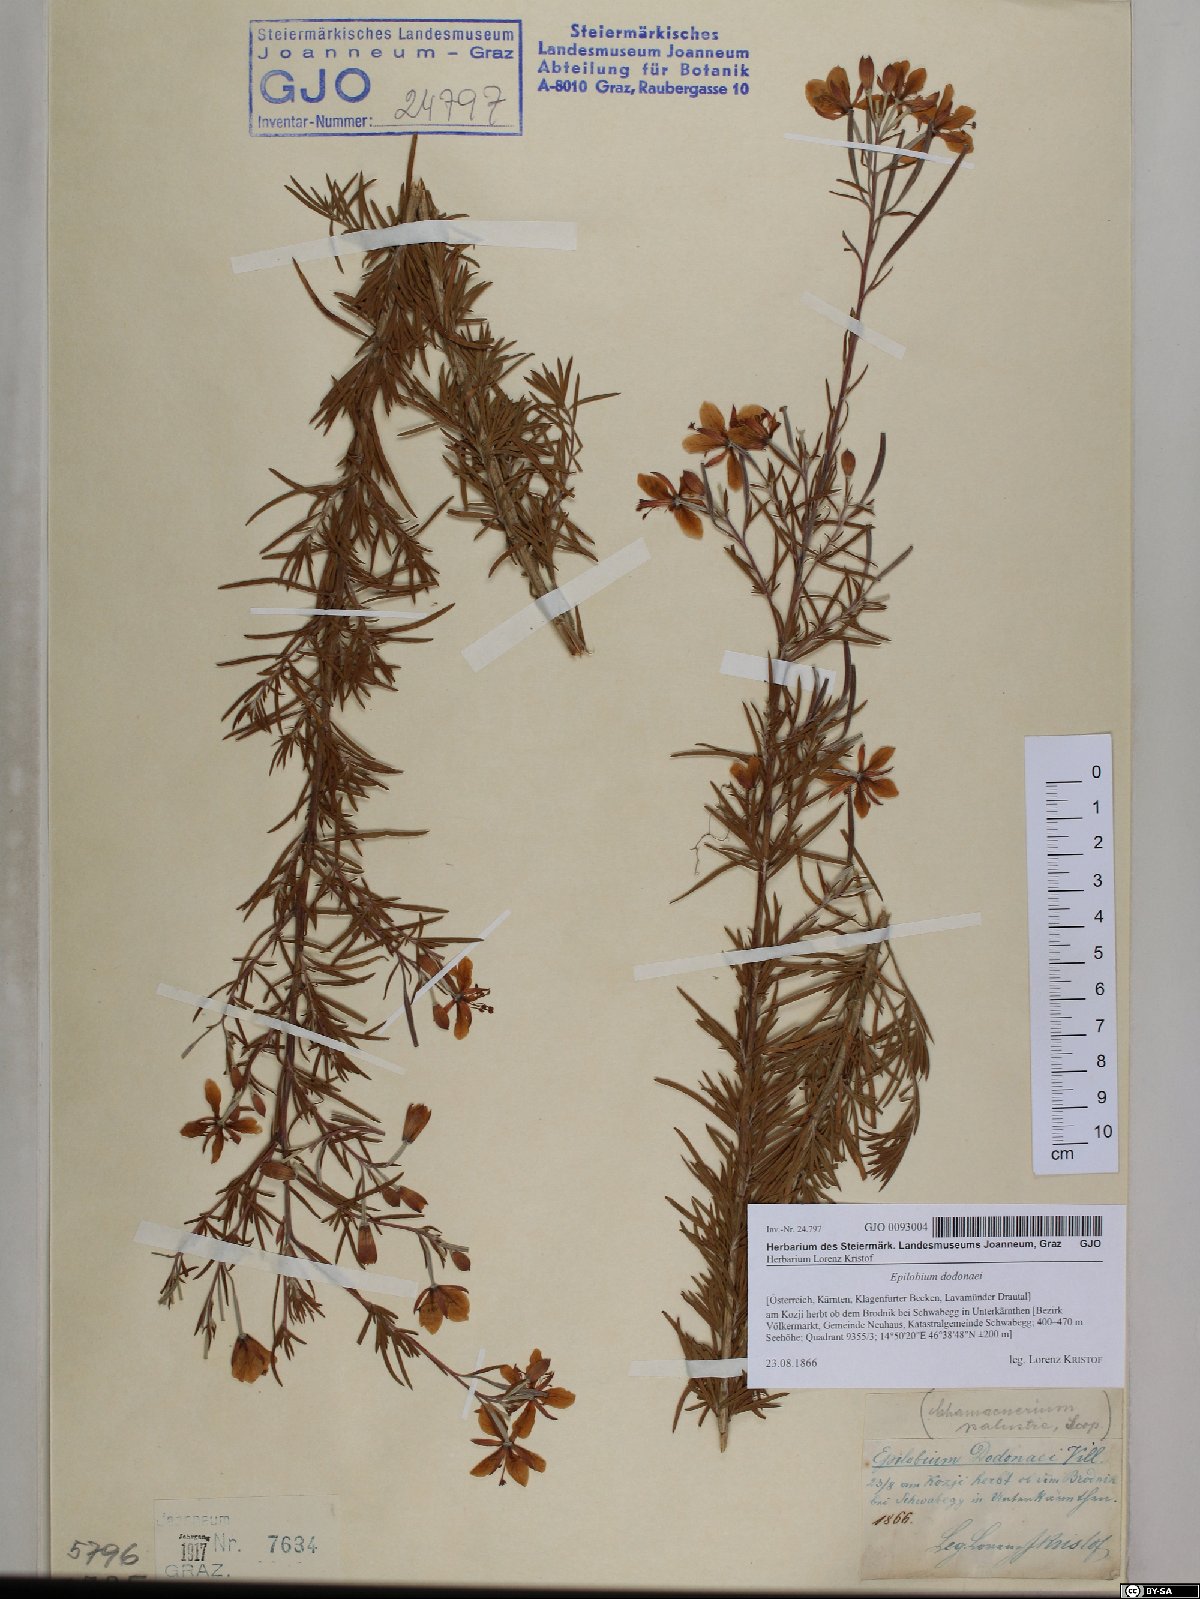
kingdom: Plantae
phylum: Tracheophyta
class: Magnoliopsida
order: Myrtales
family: Onagraceae
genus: Chamaenerion
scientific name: Chamaenerion dodonaei
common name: Rosemary-leaved willowherb
